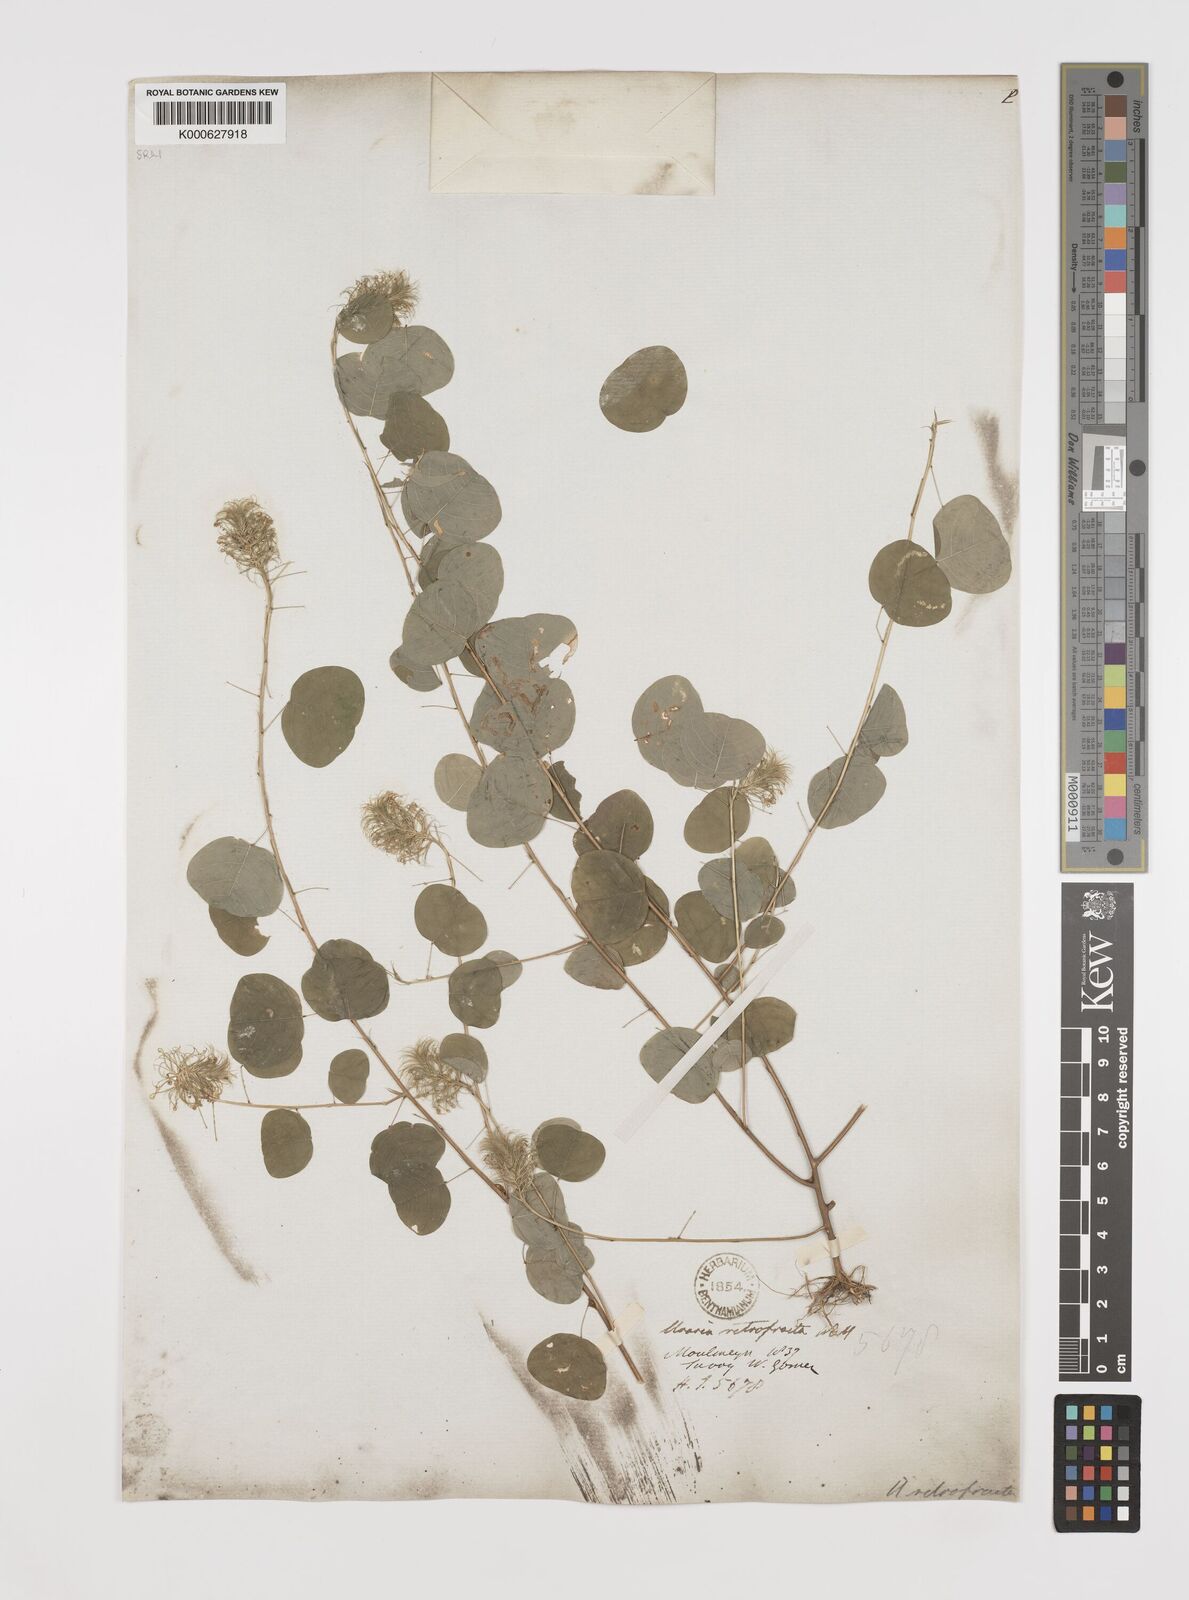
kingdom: Plantae
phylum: Tracheophyta
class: Magnoliopsida
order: Fabales
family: Fabaceae
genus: Uraria
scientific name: Uraria
